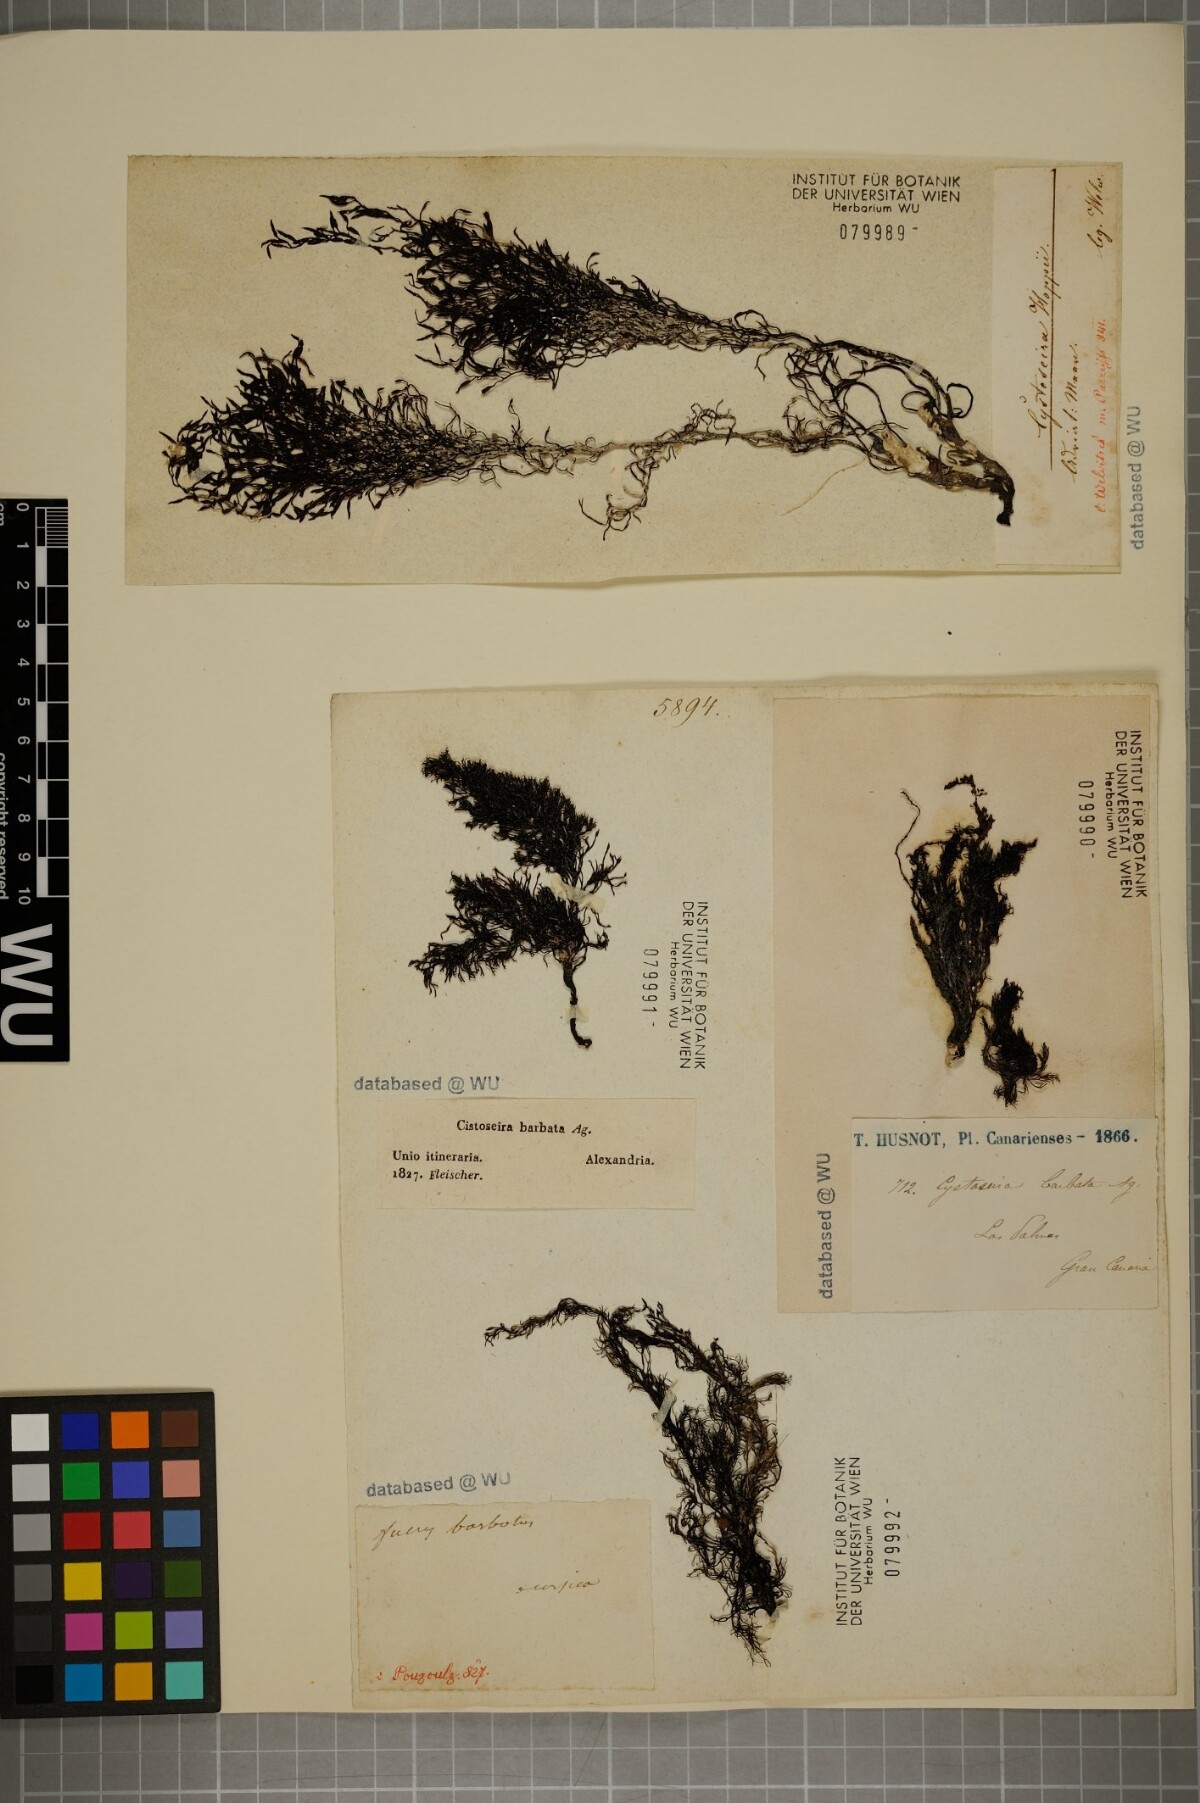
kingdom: Chromista
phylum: Ochrophyta
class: Phaeophyceae
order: Fucales
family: Sargassaceae
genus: Cystoseira
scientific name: Cystoseira Gongolaria barbata
